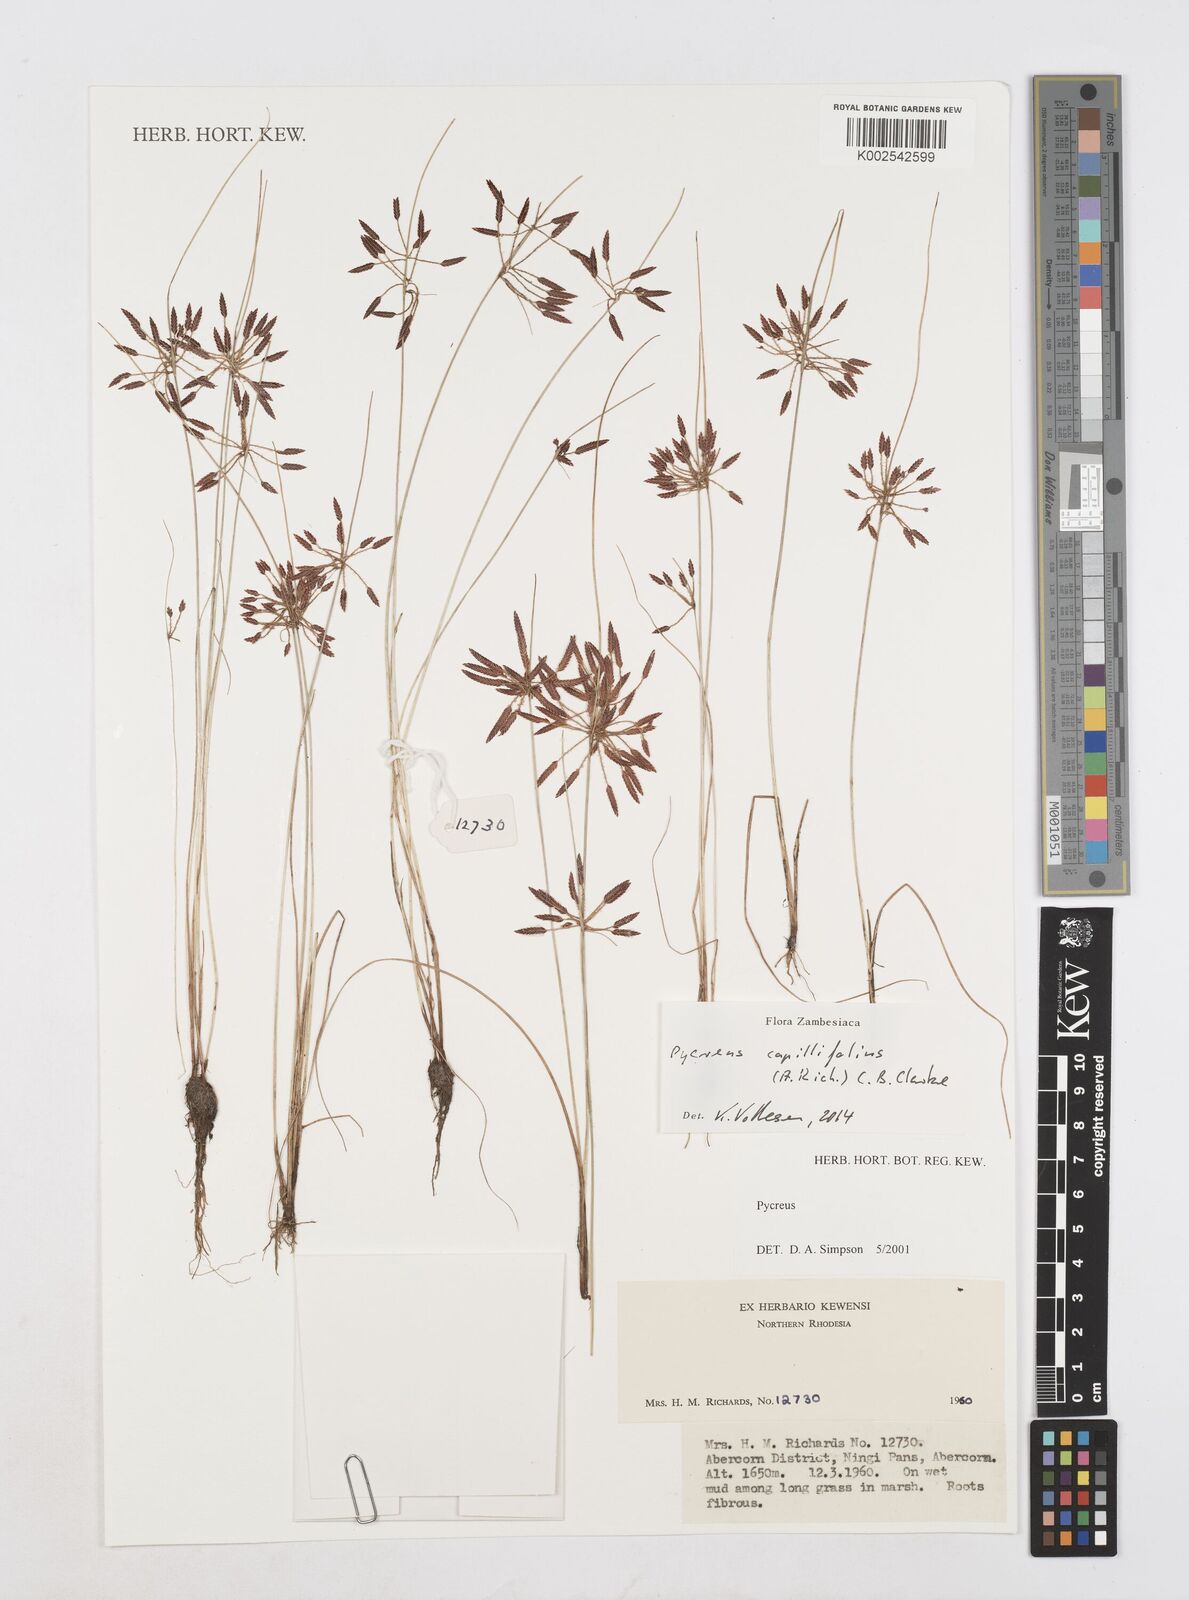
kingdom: Plantae
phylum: Tracheophyta
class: Liliopsida
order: Poales
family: Cyperaceae
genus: Cyperus
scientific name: Cyperus capillifolius
